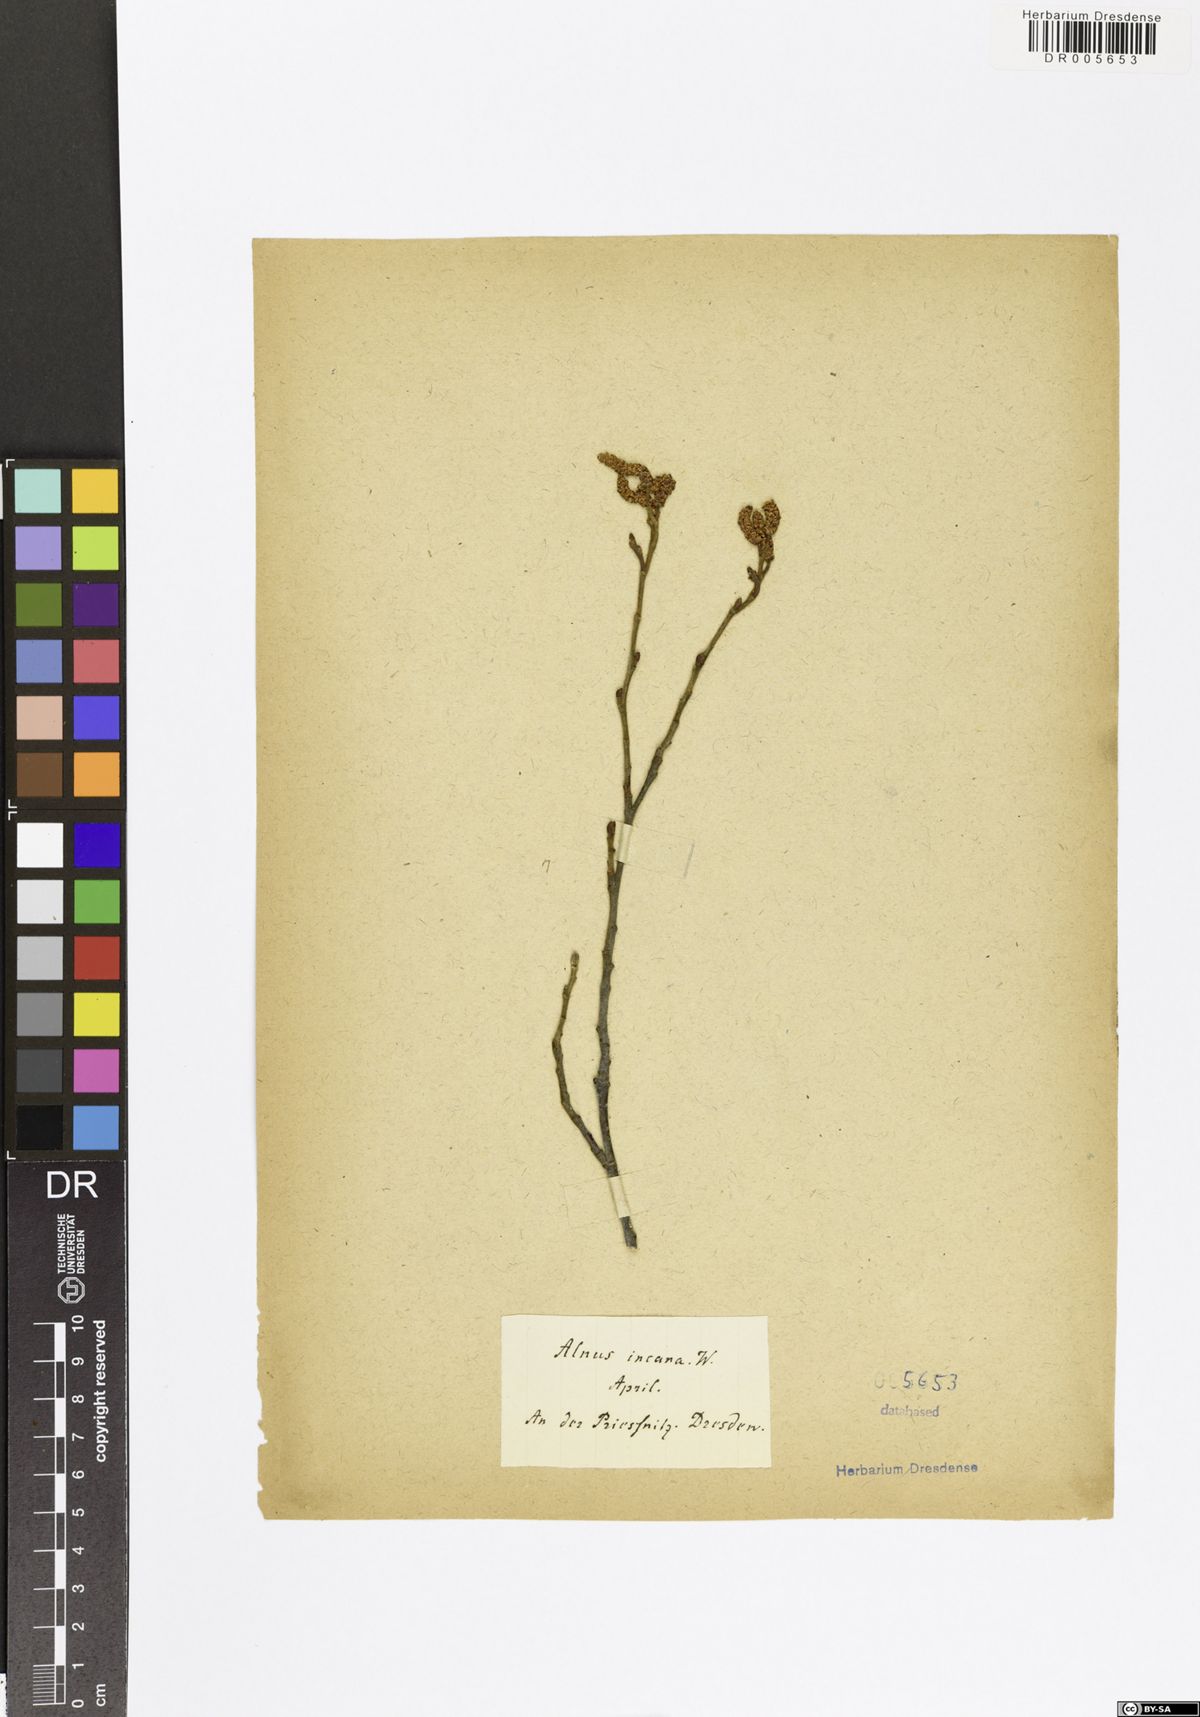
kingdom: Plantae
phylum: Tracheophyta
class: Magnoliopsida
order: Fagales
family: Betulaceae
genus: Alnus
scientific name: Alnus incana
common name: Grey alder
